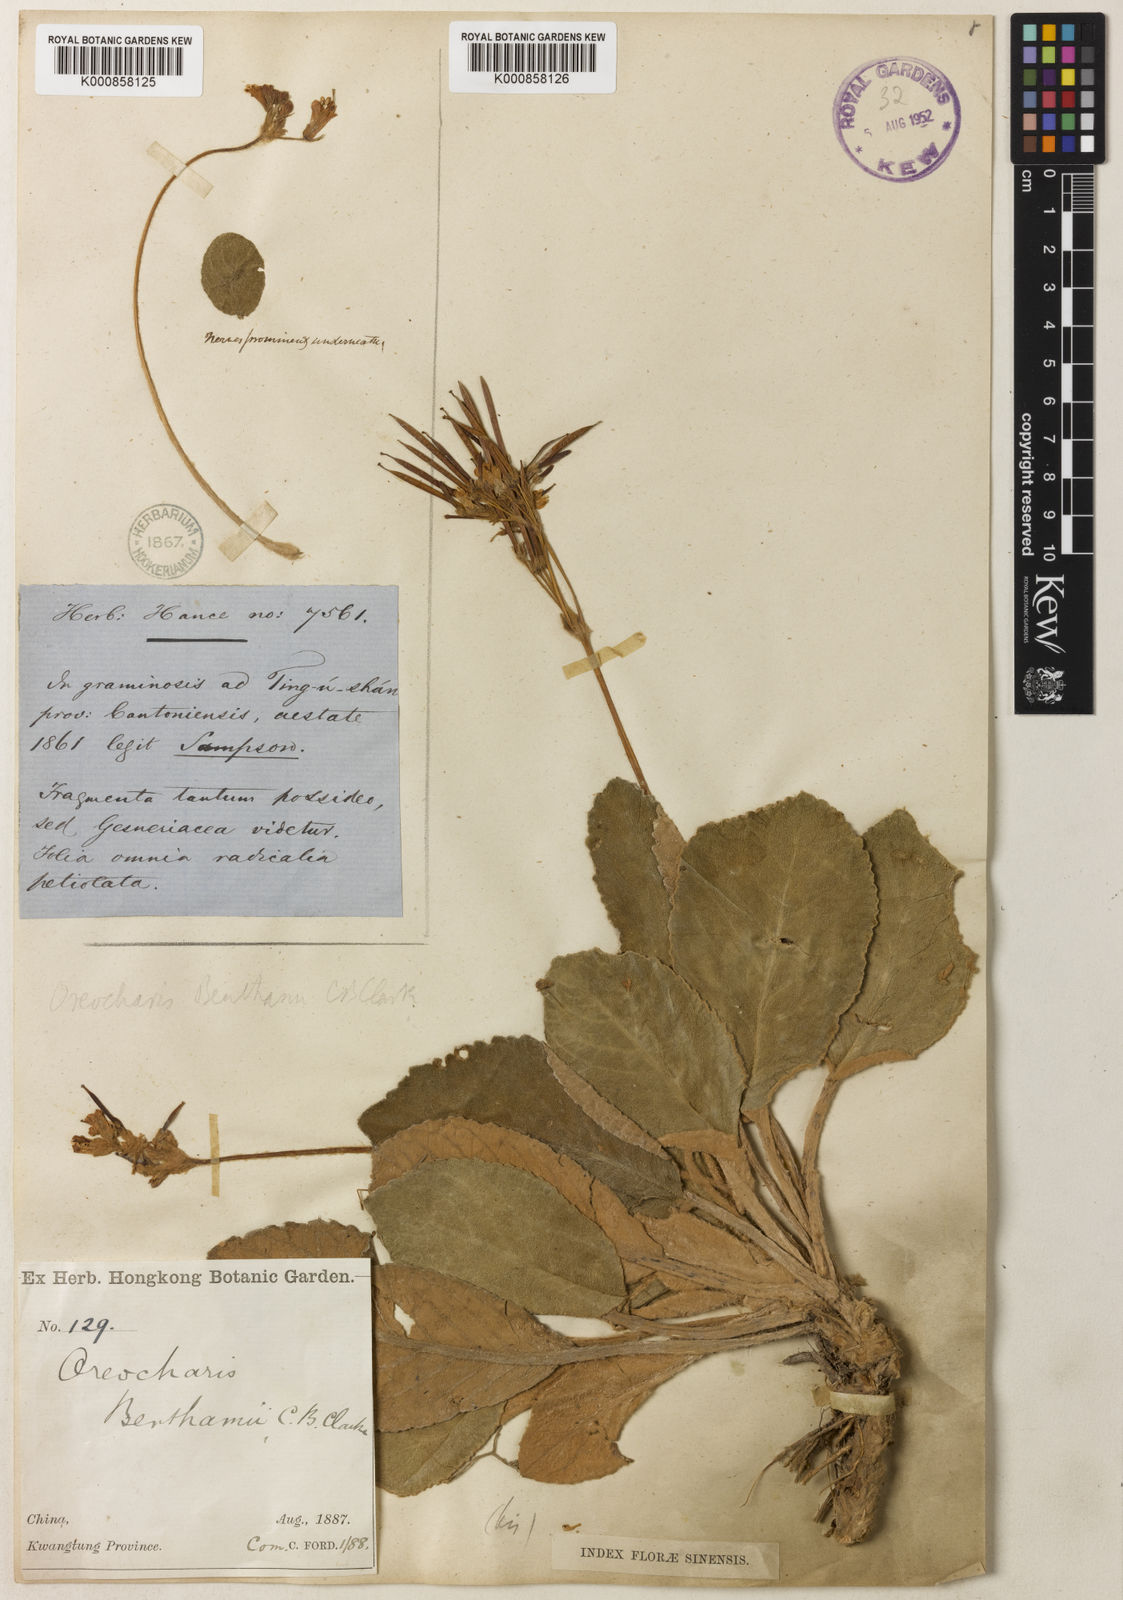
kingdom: Plantae
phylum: Tracheophyta
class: Magnoliopsida
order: Lamiales
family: Gesneriaceae
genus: Oreocharis
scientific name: Oreocharis benthamii
